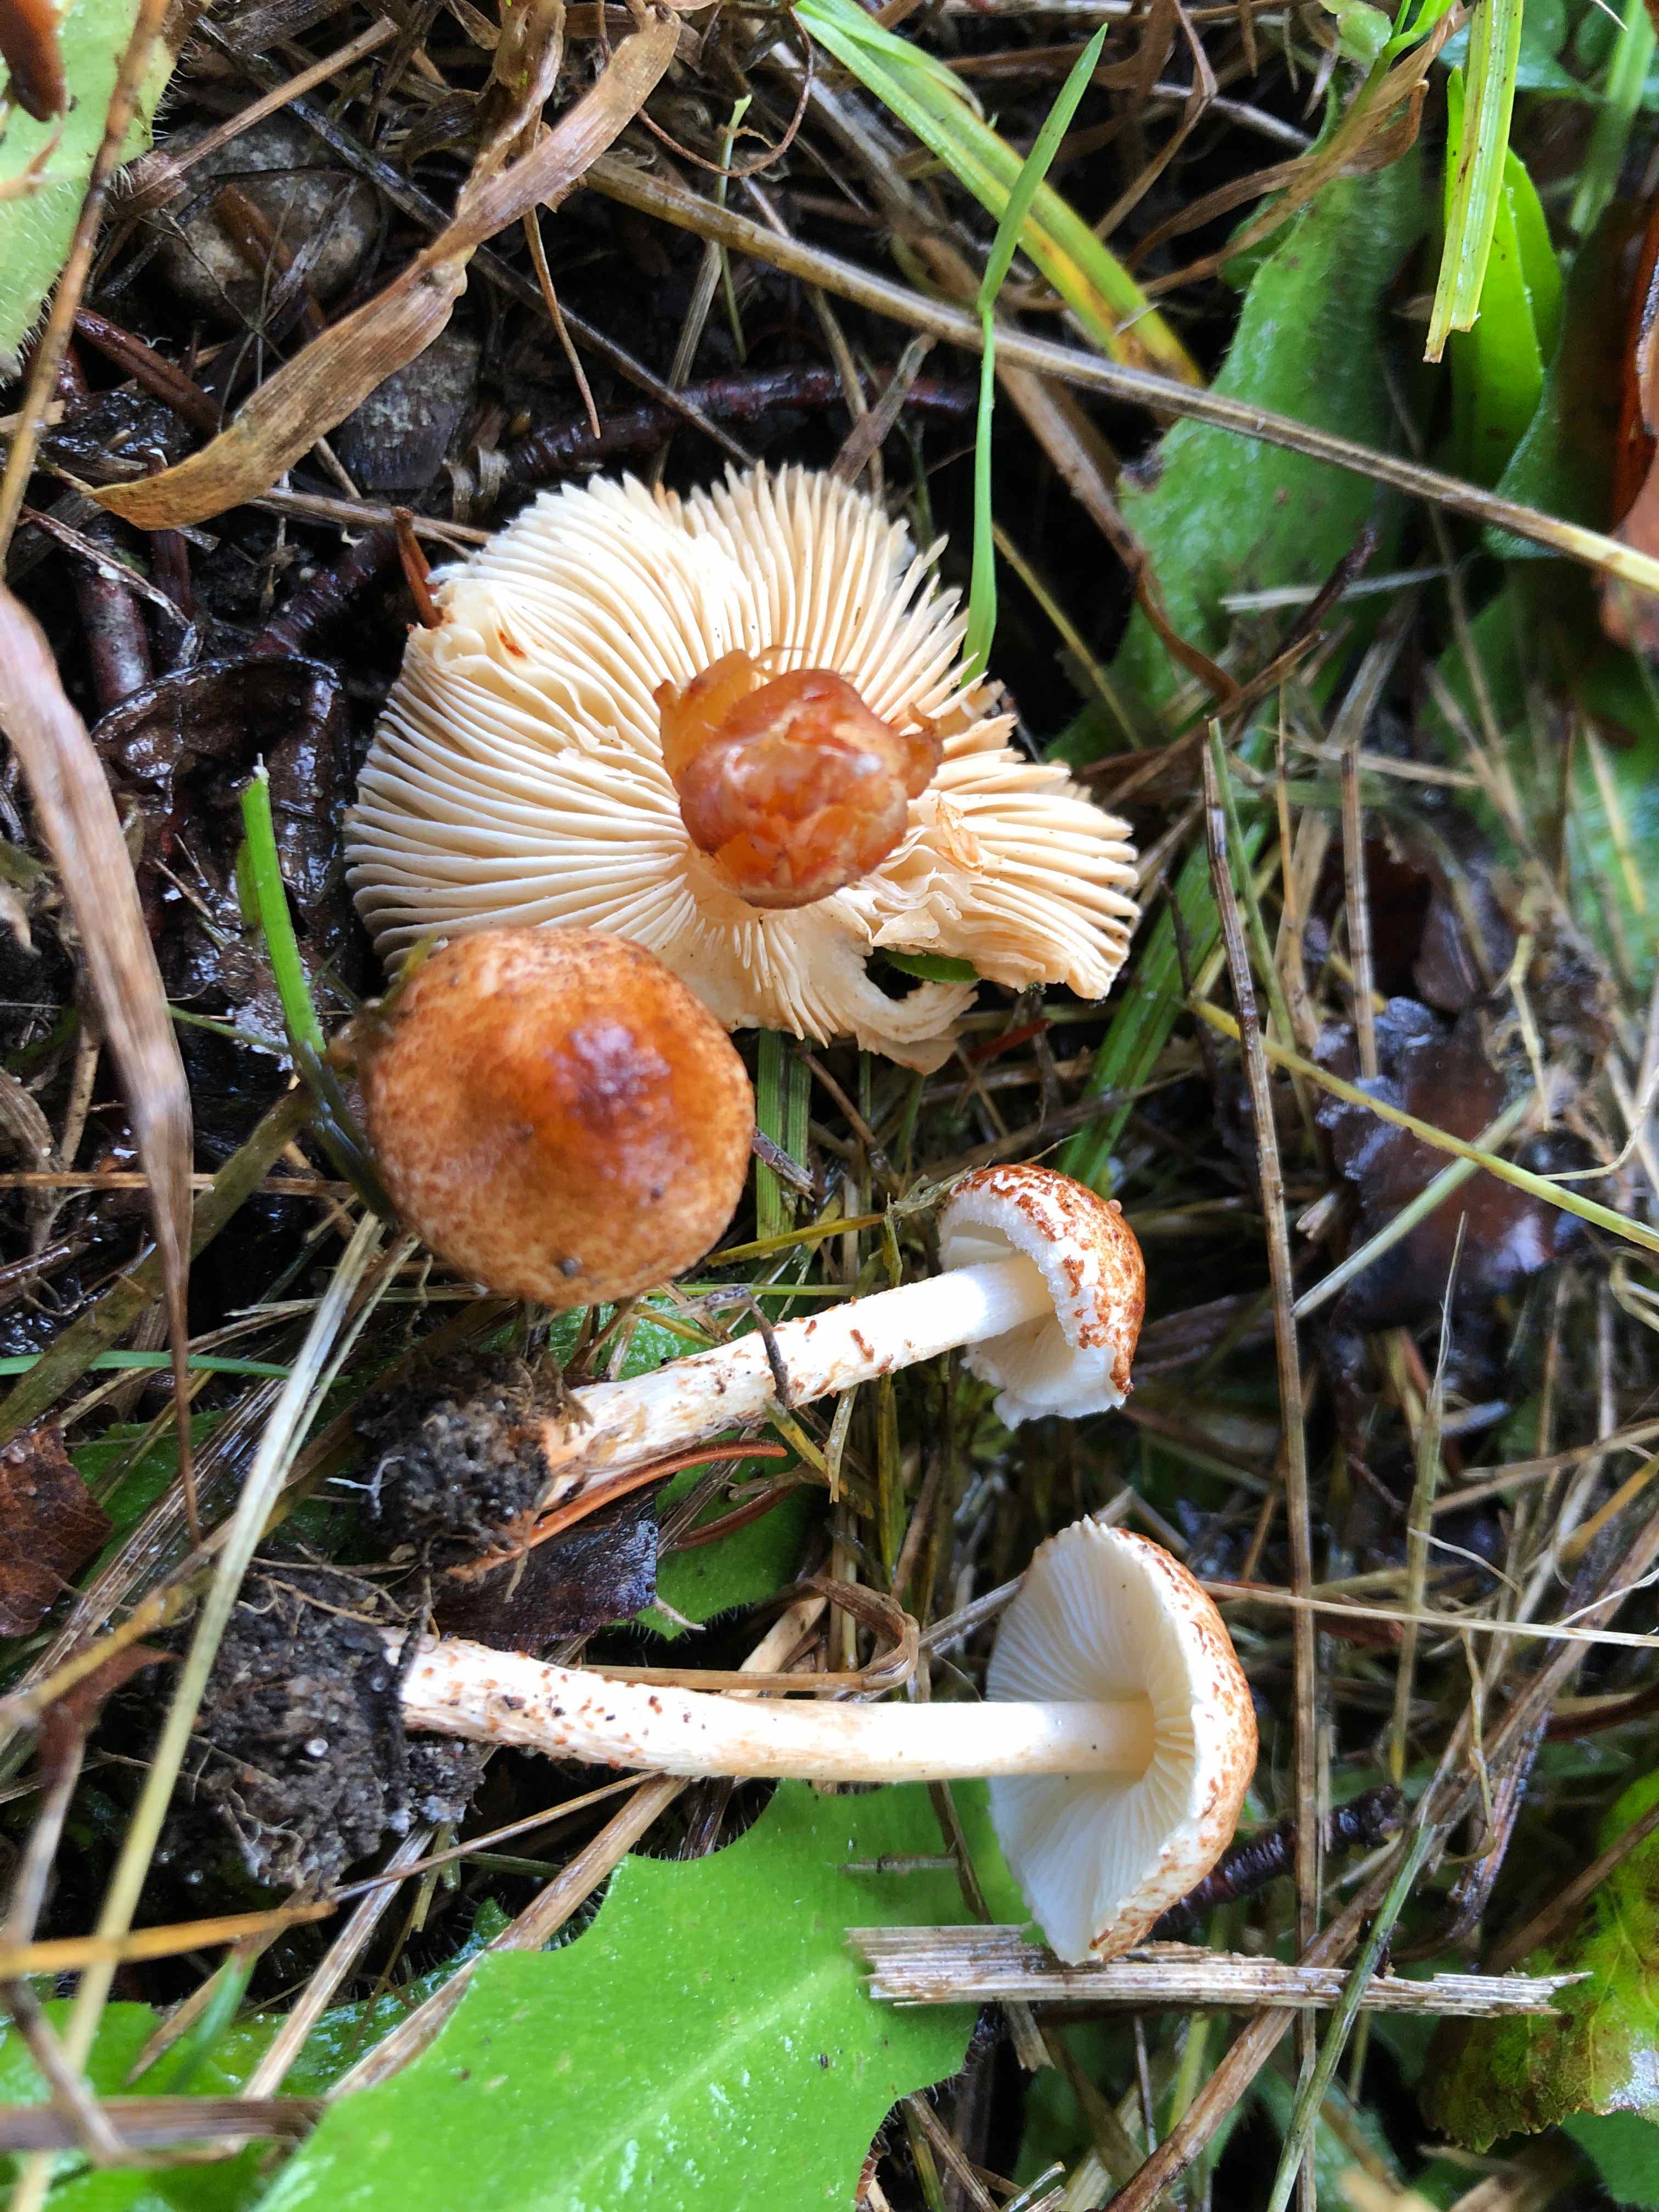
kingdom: Fungi
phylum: Basidiomycota
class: Agaricomycetes
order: Agaricales
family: Agaricaceae
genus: Lepiota
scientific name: Lepiota castanea
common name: kastaniebrun parasolhat
